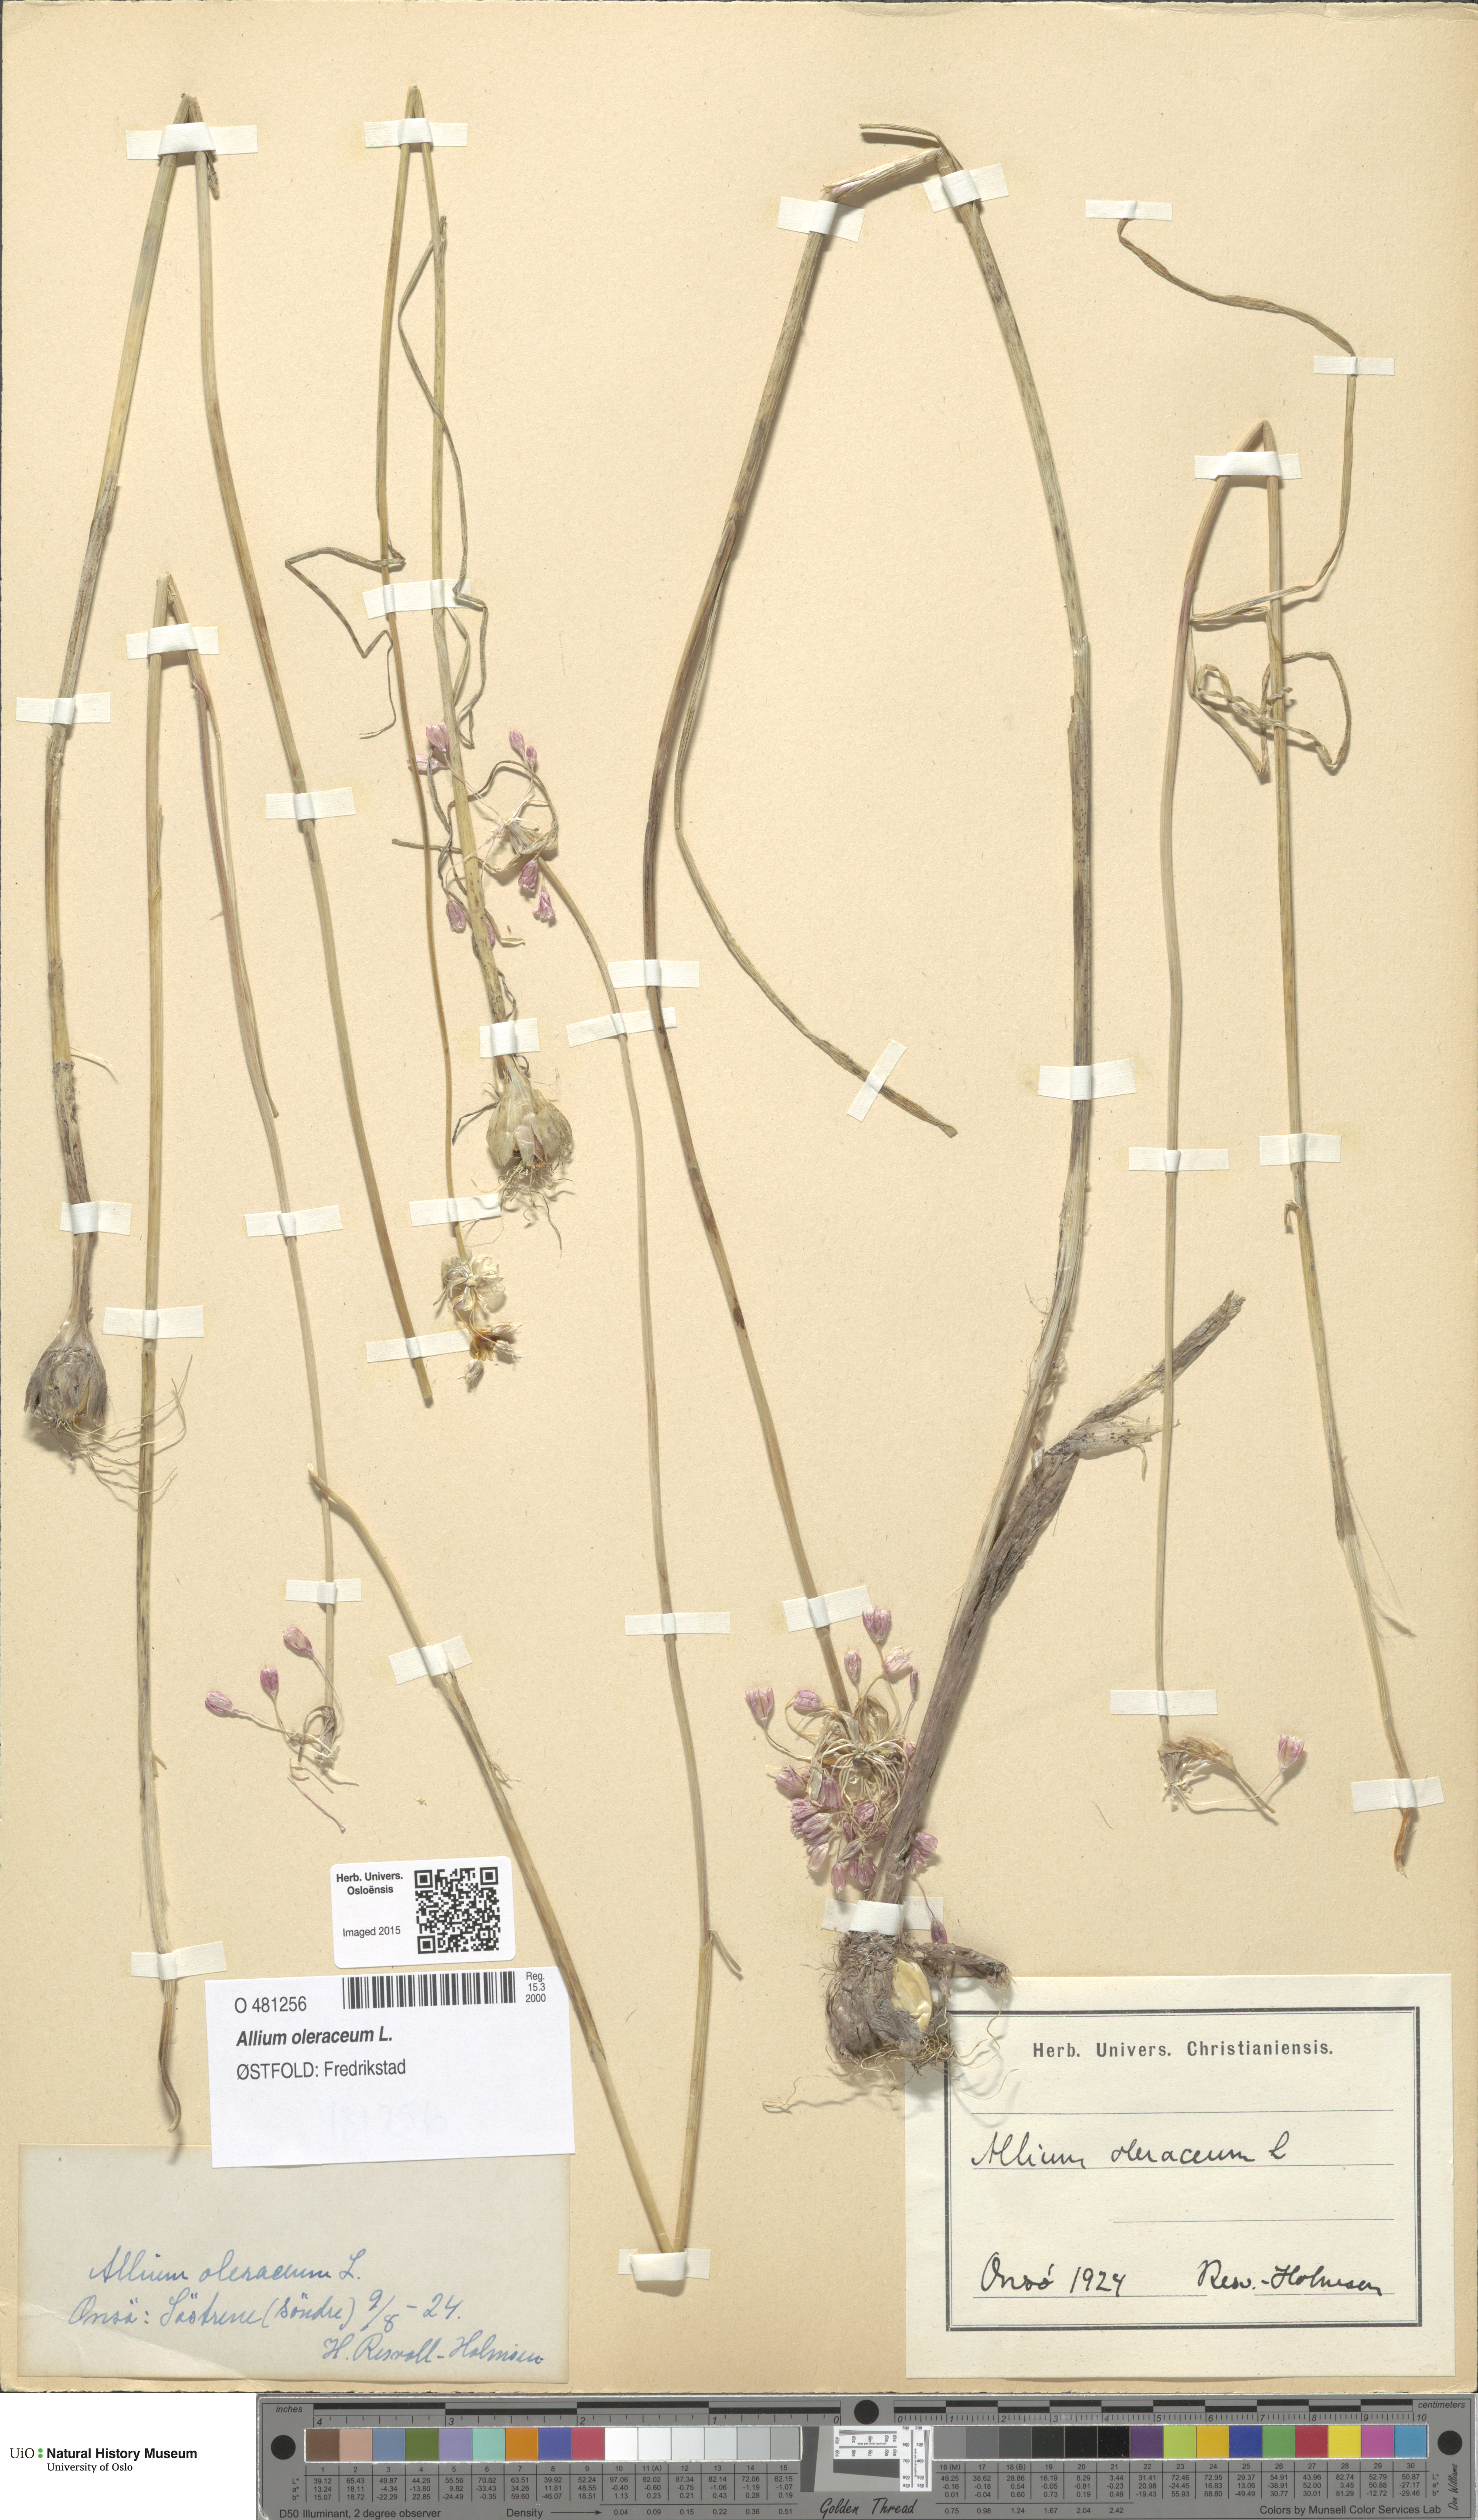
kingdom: Plantae
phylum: Tracheophyta
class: Liliopsida
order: Asparagales
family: Amaryllidaceae
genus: Allium
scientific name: Allium oleraceum
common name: Field garlic
